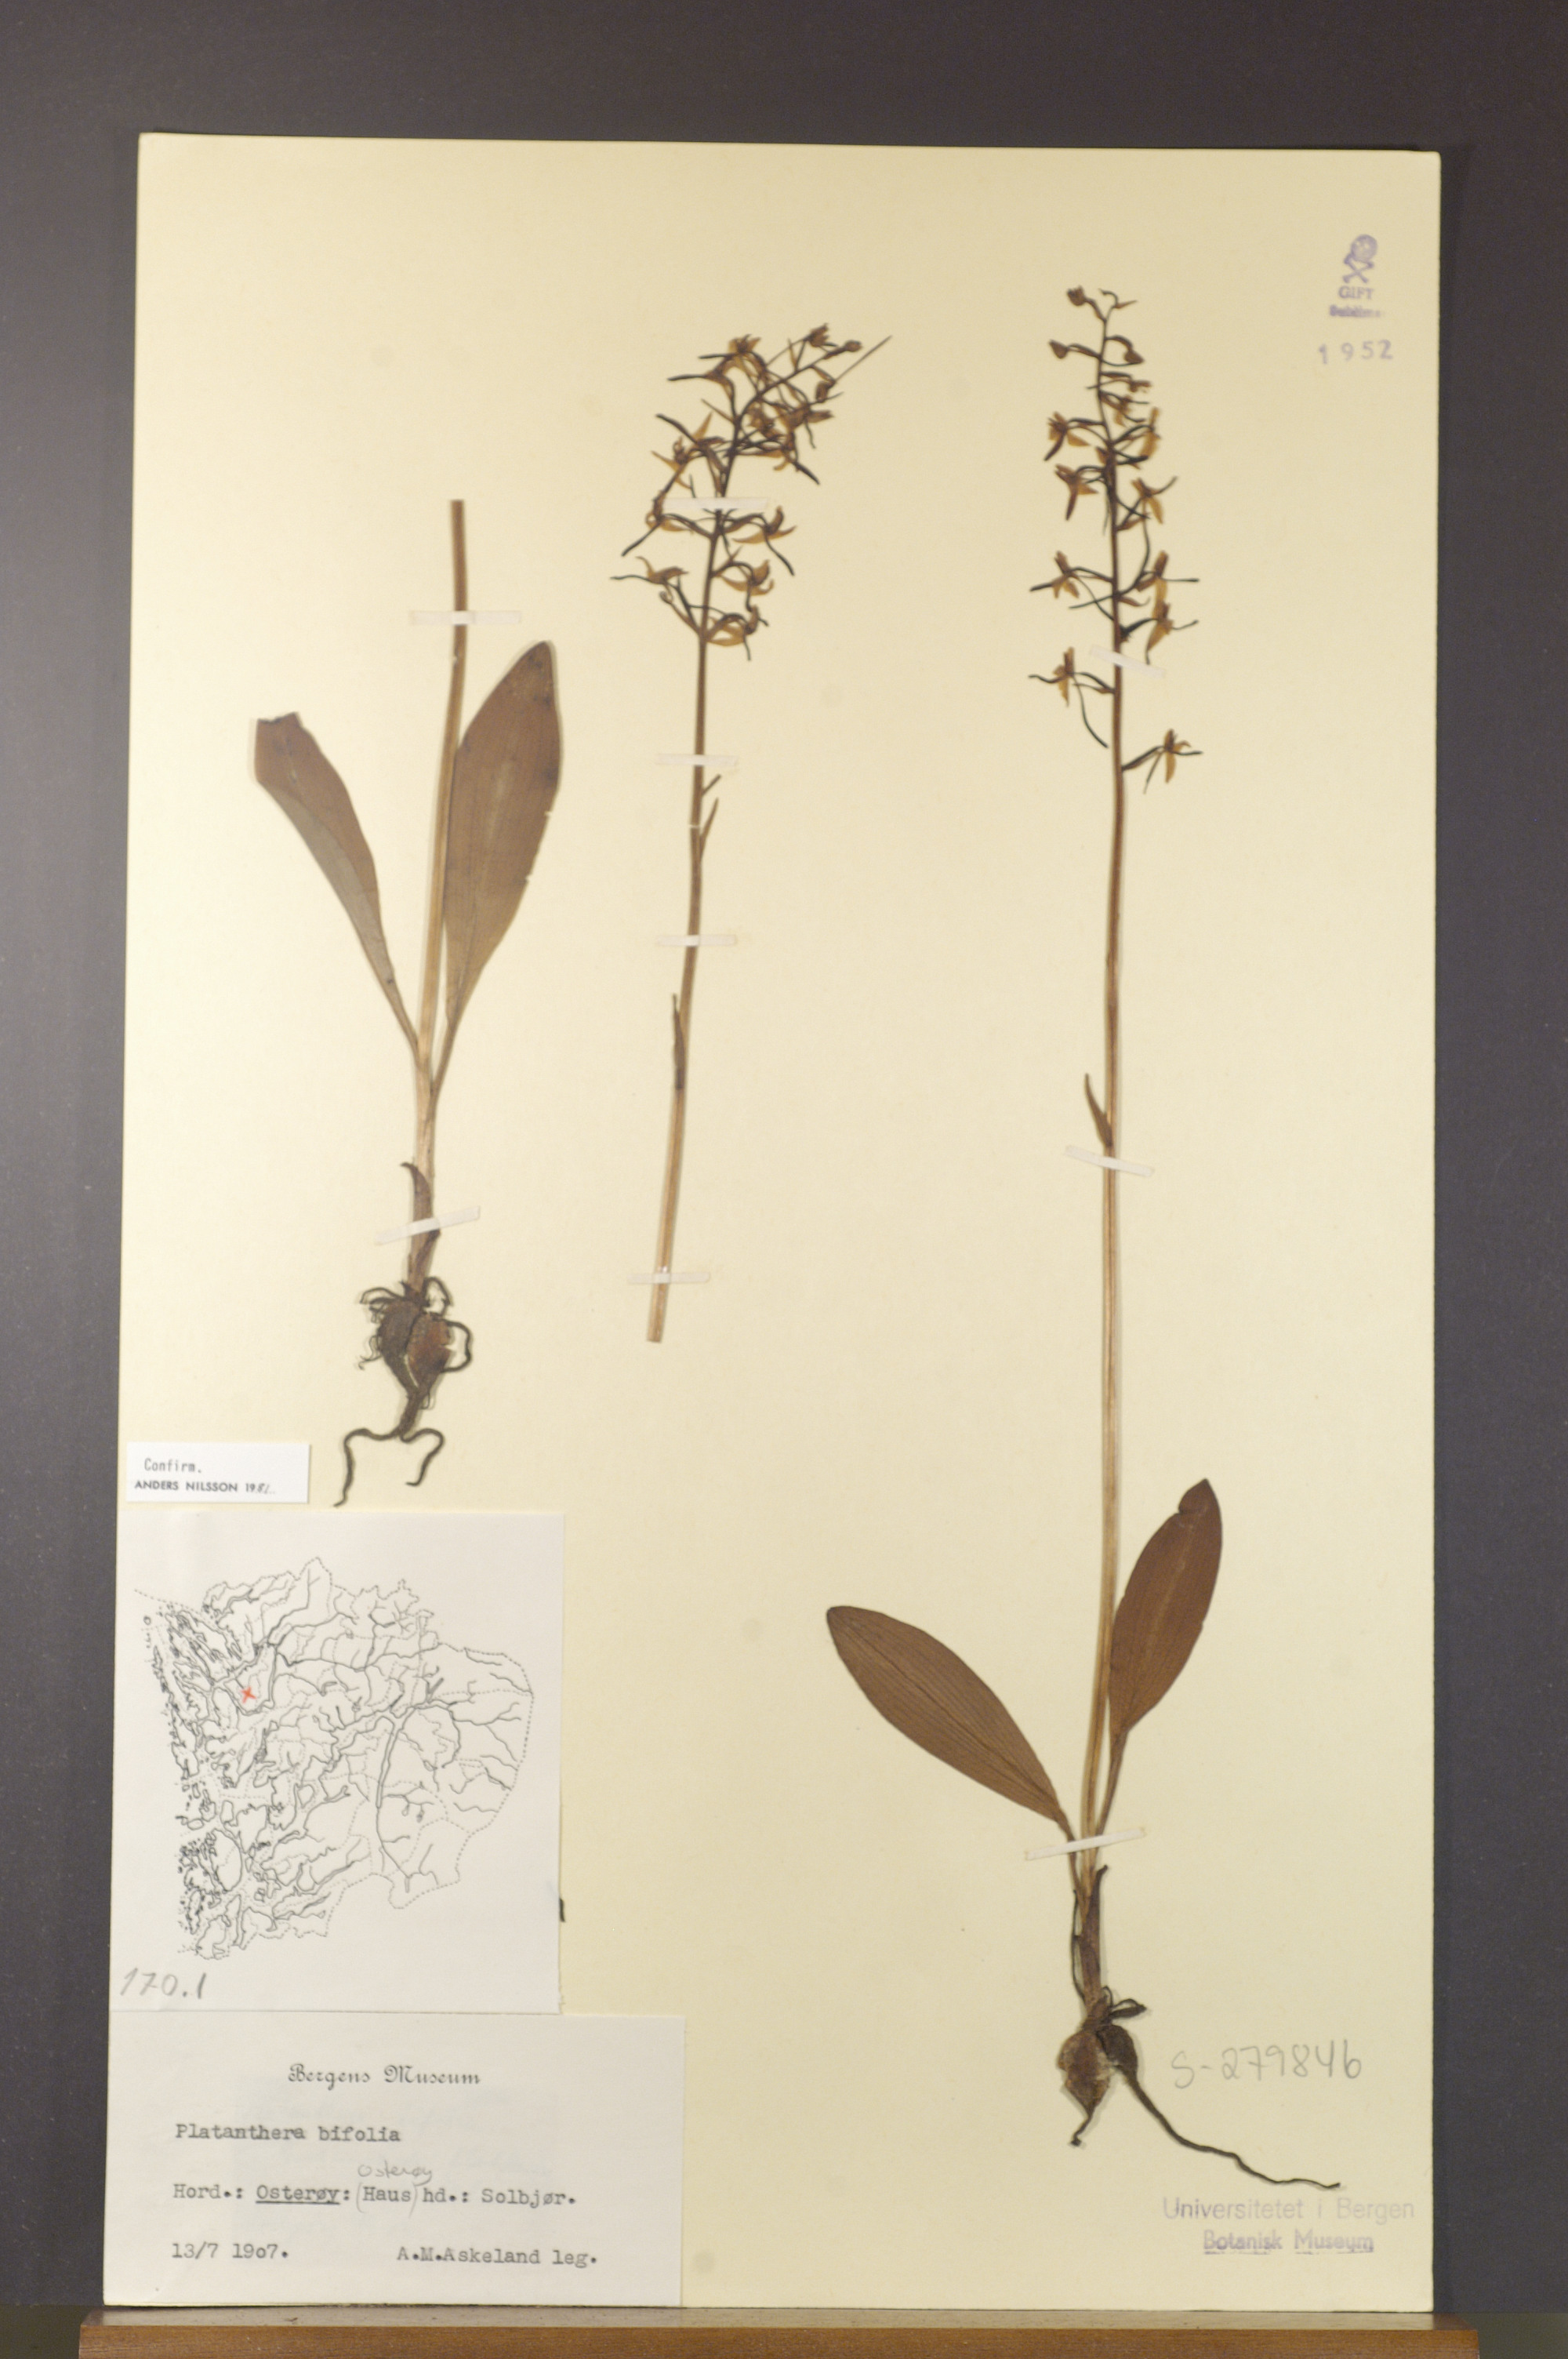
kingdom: Plantae
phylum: Tracheophyta
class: Liliopsida
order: Asparagales
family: Orchidaceae
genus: Platanthera
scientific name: Platanthera bifolia
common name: Lesser butterfly-orchid
